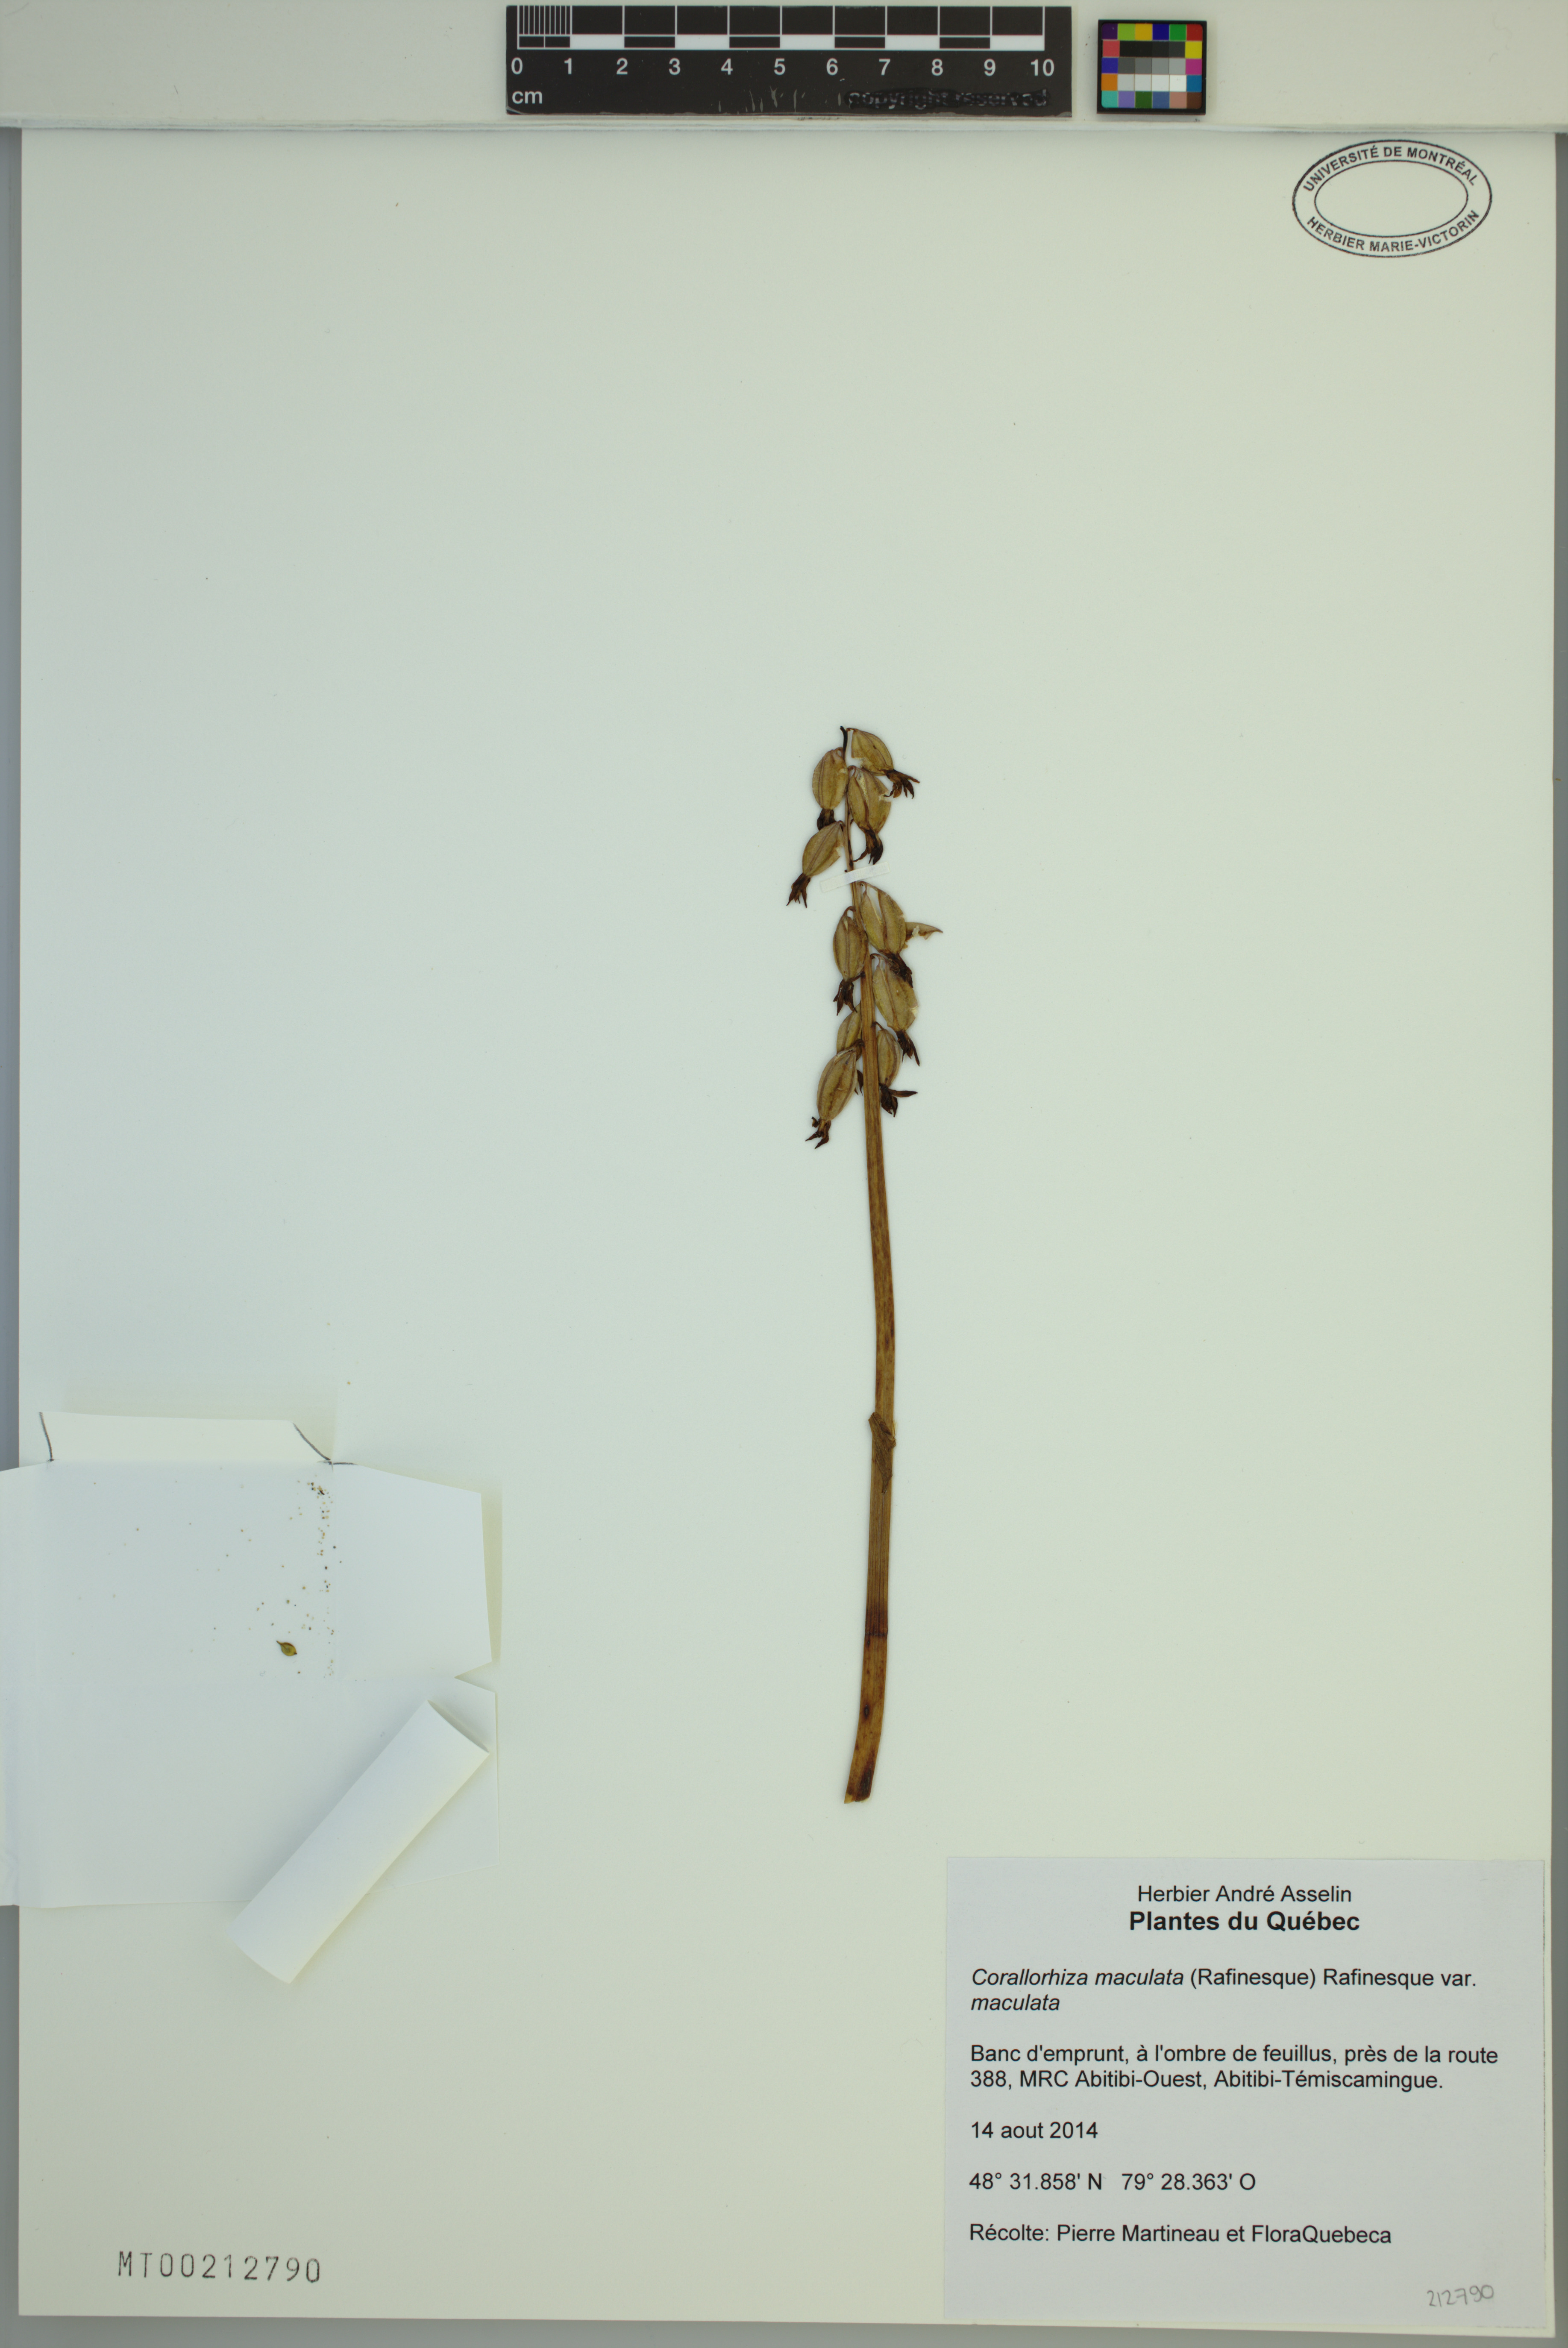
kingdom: Plantae
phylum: Tracheophyta
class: Liliopsida
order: Asparagales
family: Orchidaceae
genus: Corallorhiza
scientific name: Corallorhiza maculata
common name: Spotted coralroot
